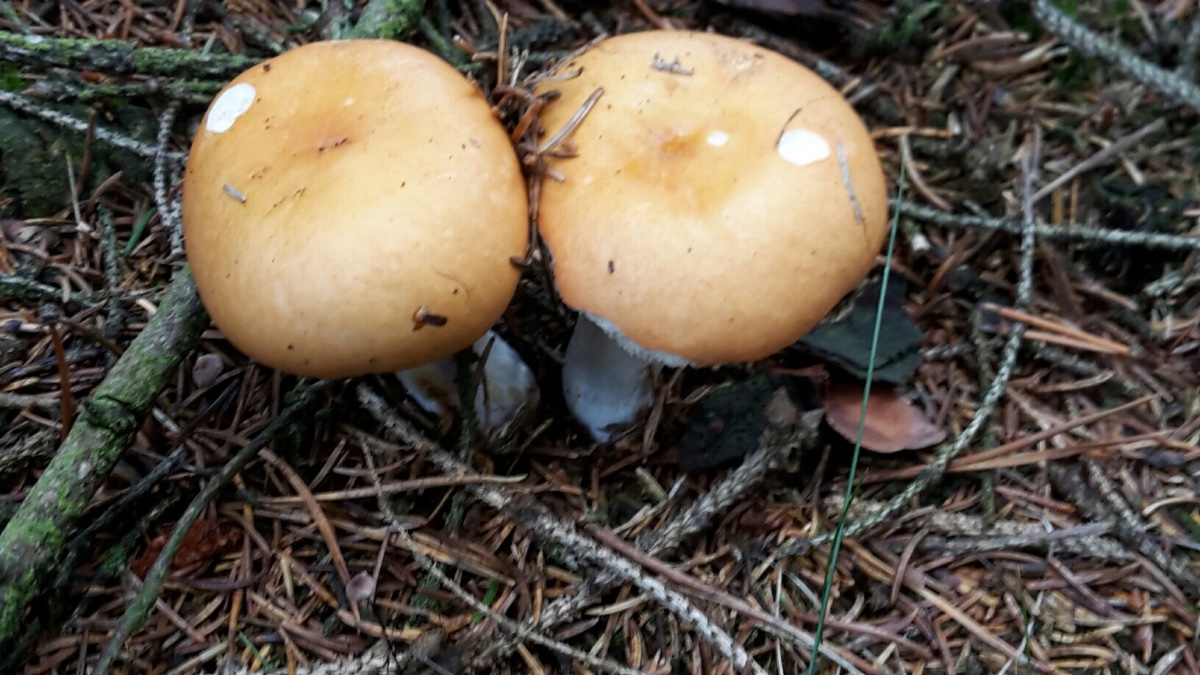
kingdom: Fungi
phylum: Basidiomycota
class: Agaricomycetes
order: Russulales
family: Russulaceae
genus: Russula
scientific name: Russula decolorans
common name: afblegende skørhat
